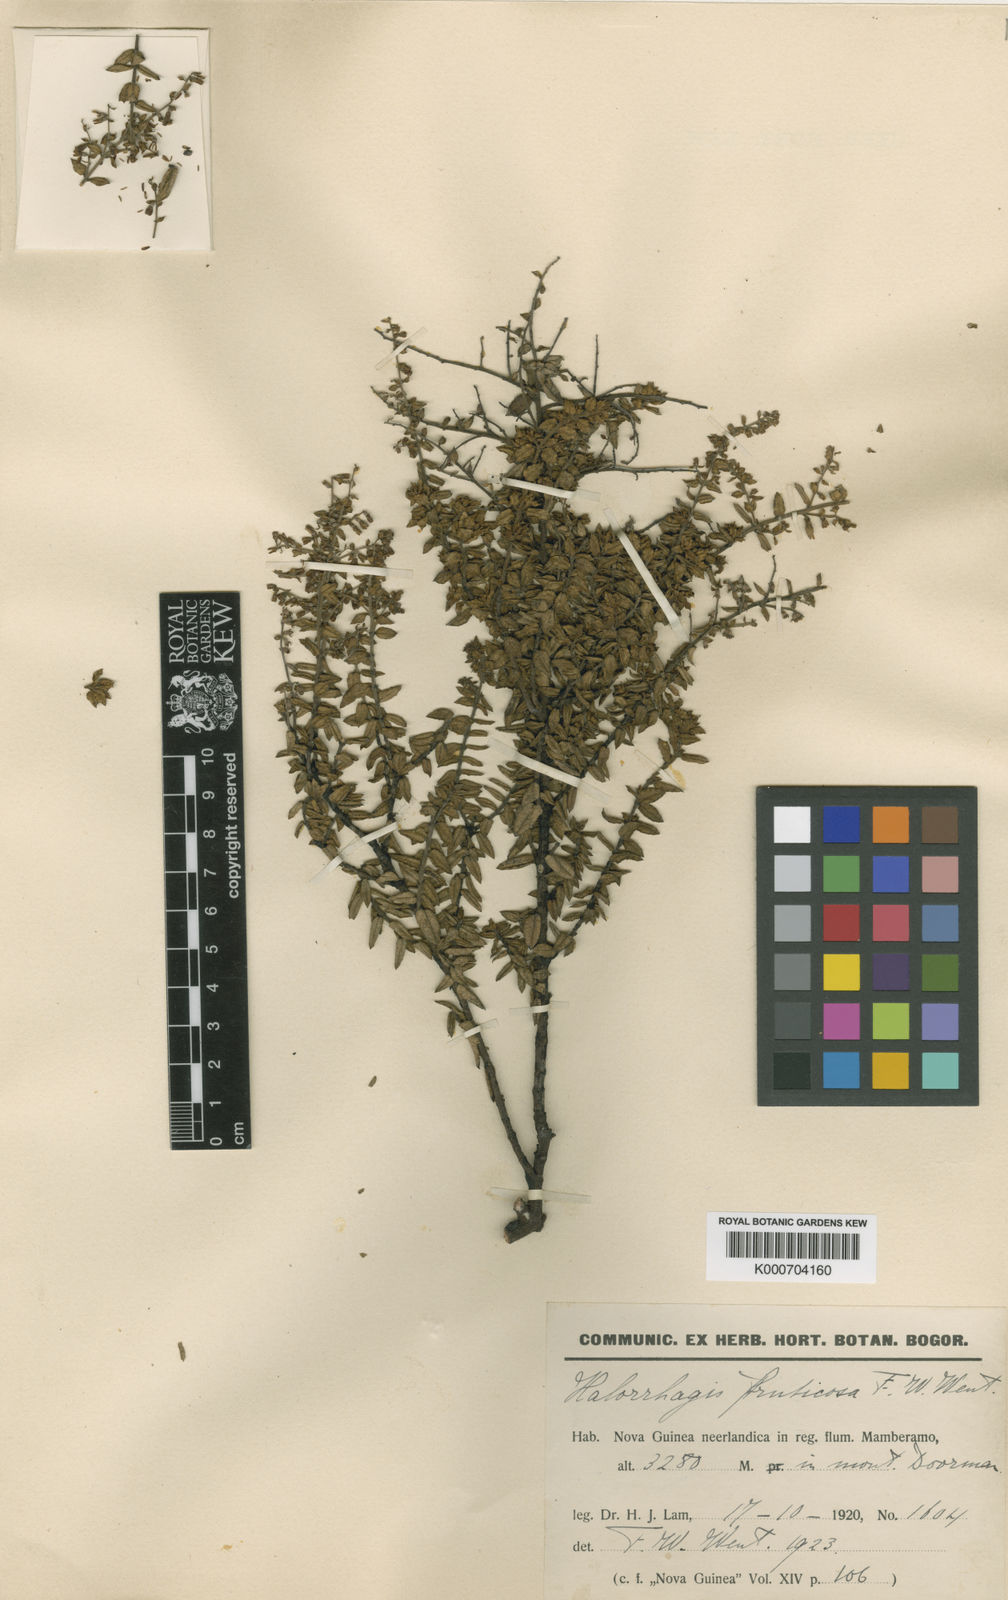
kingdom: Plantae
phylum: Tracheophyta
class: Magnoliopsida
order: Saxifragales
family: Haloragaceae
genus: Gonocarpus
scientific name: Gonocarpus halconensis
